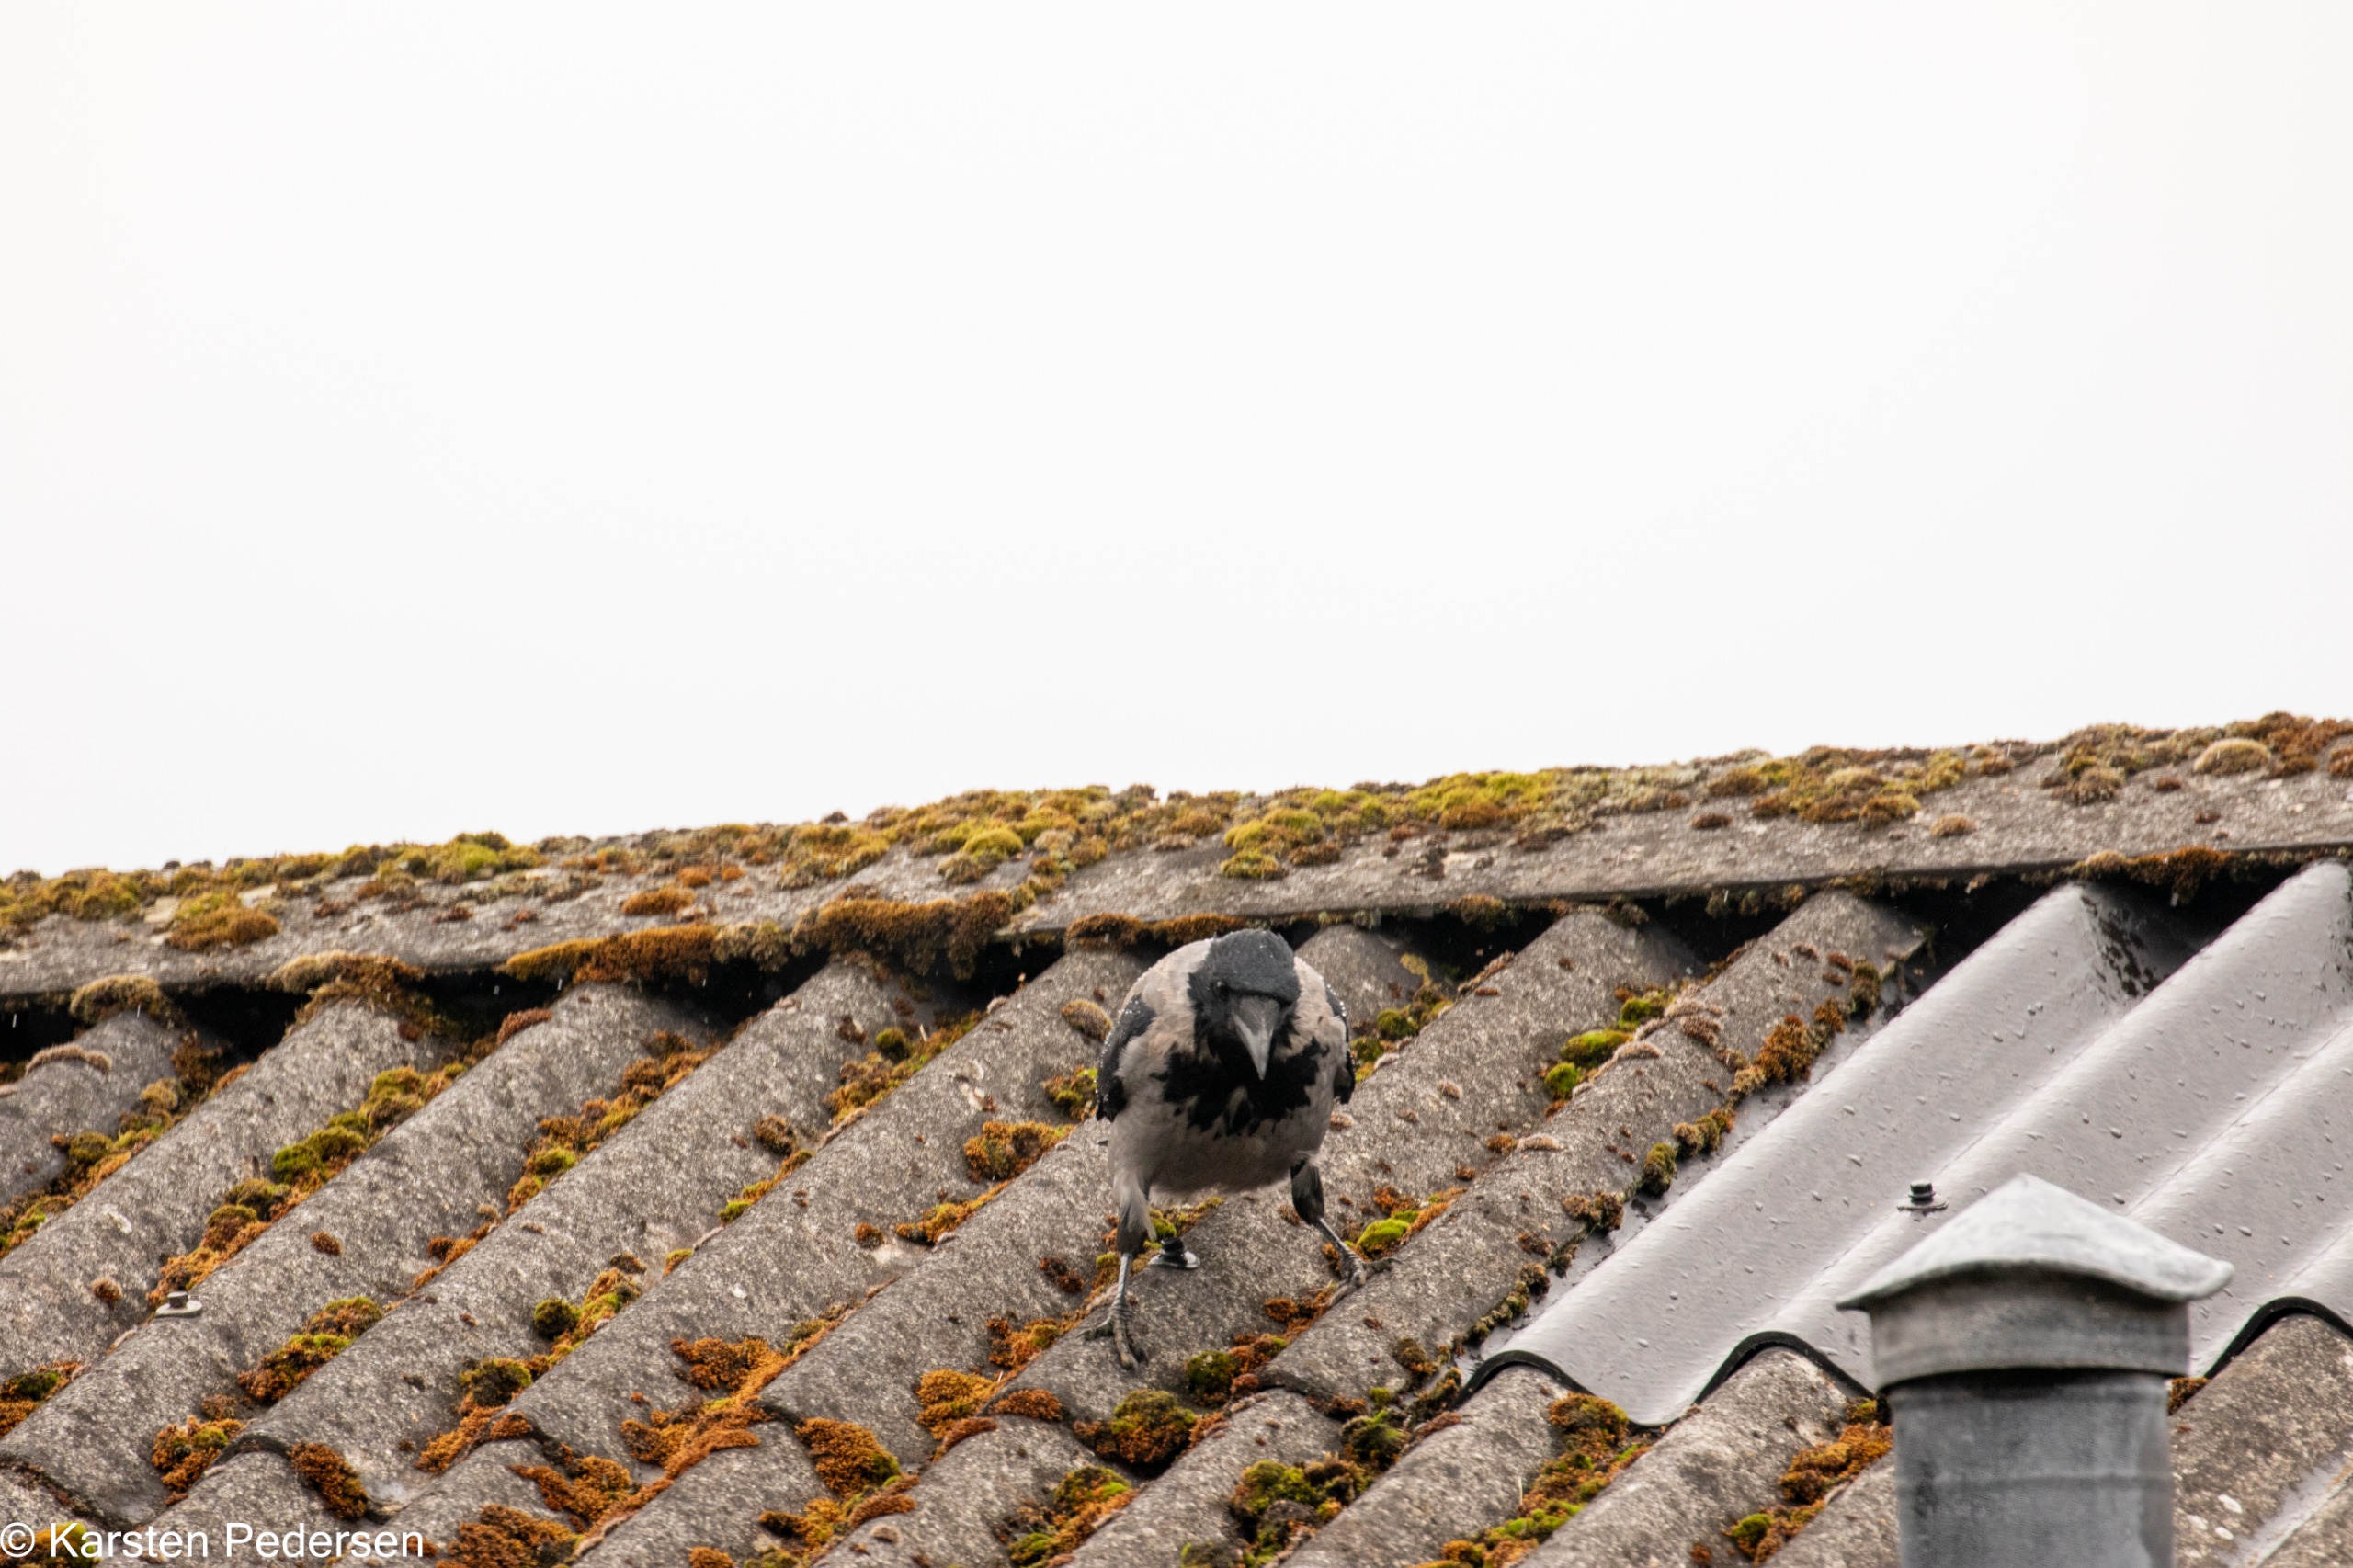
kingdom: Animalia
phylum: Chordata
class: Aves
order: Passeriformes
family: Corvidae
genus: Corvus
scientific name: Corvus cornix
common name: Gråkrage
